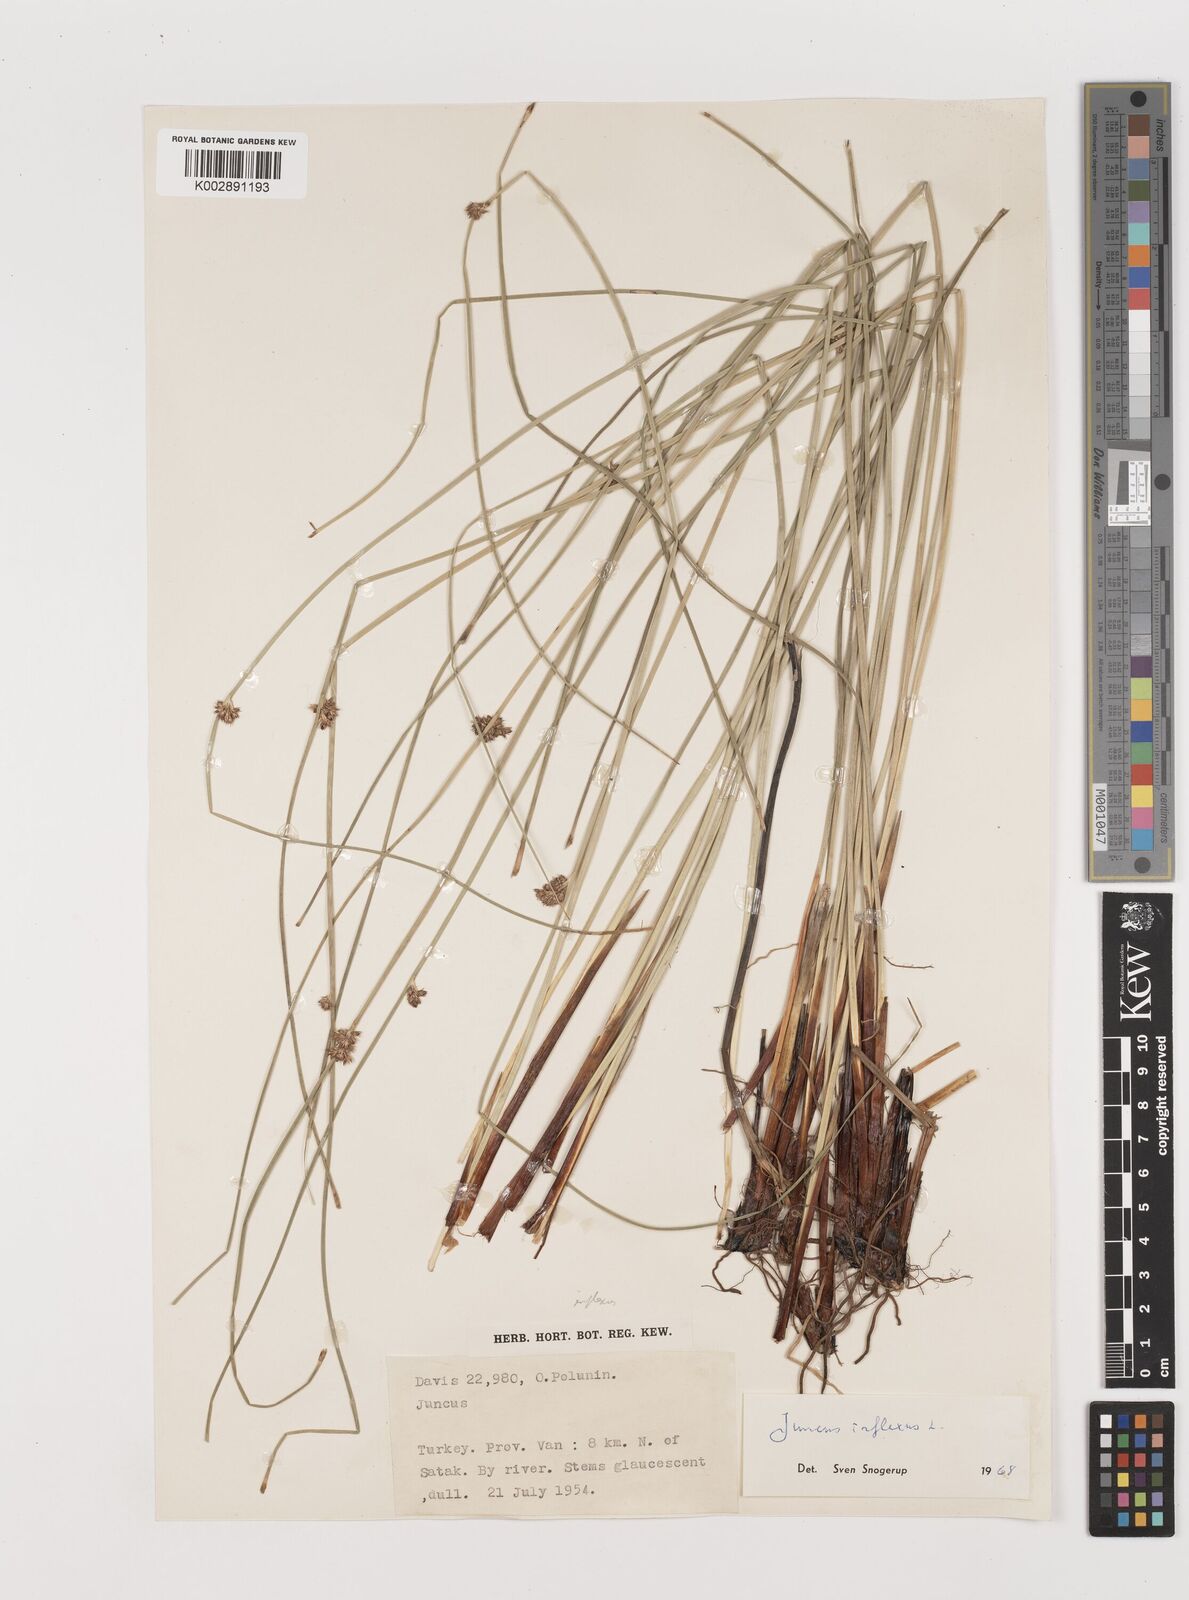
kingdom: Plantae
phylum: Tracheophyta
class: Liliopsida
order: Poales
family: Juncaceae
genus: Juncus
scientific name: Juncus inflexus
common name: Hard rush
